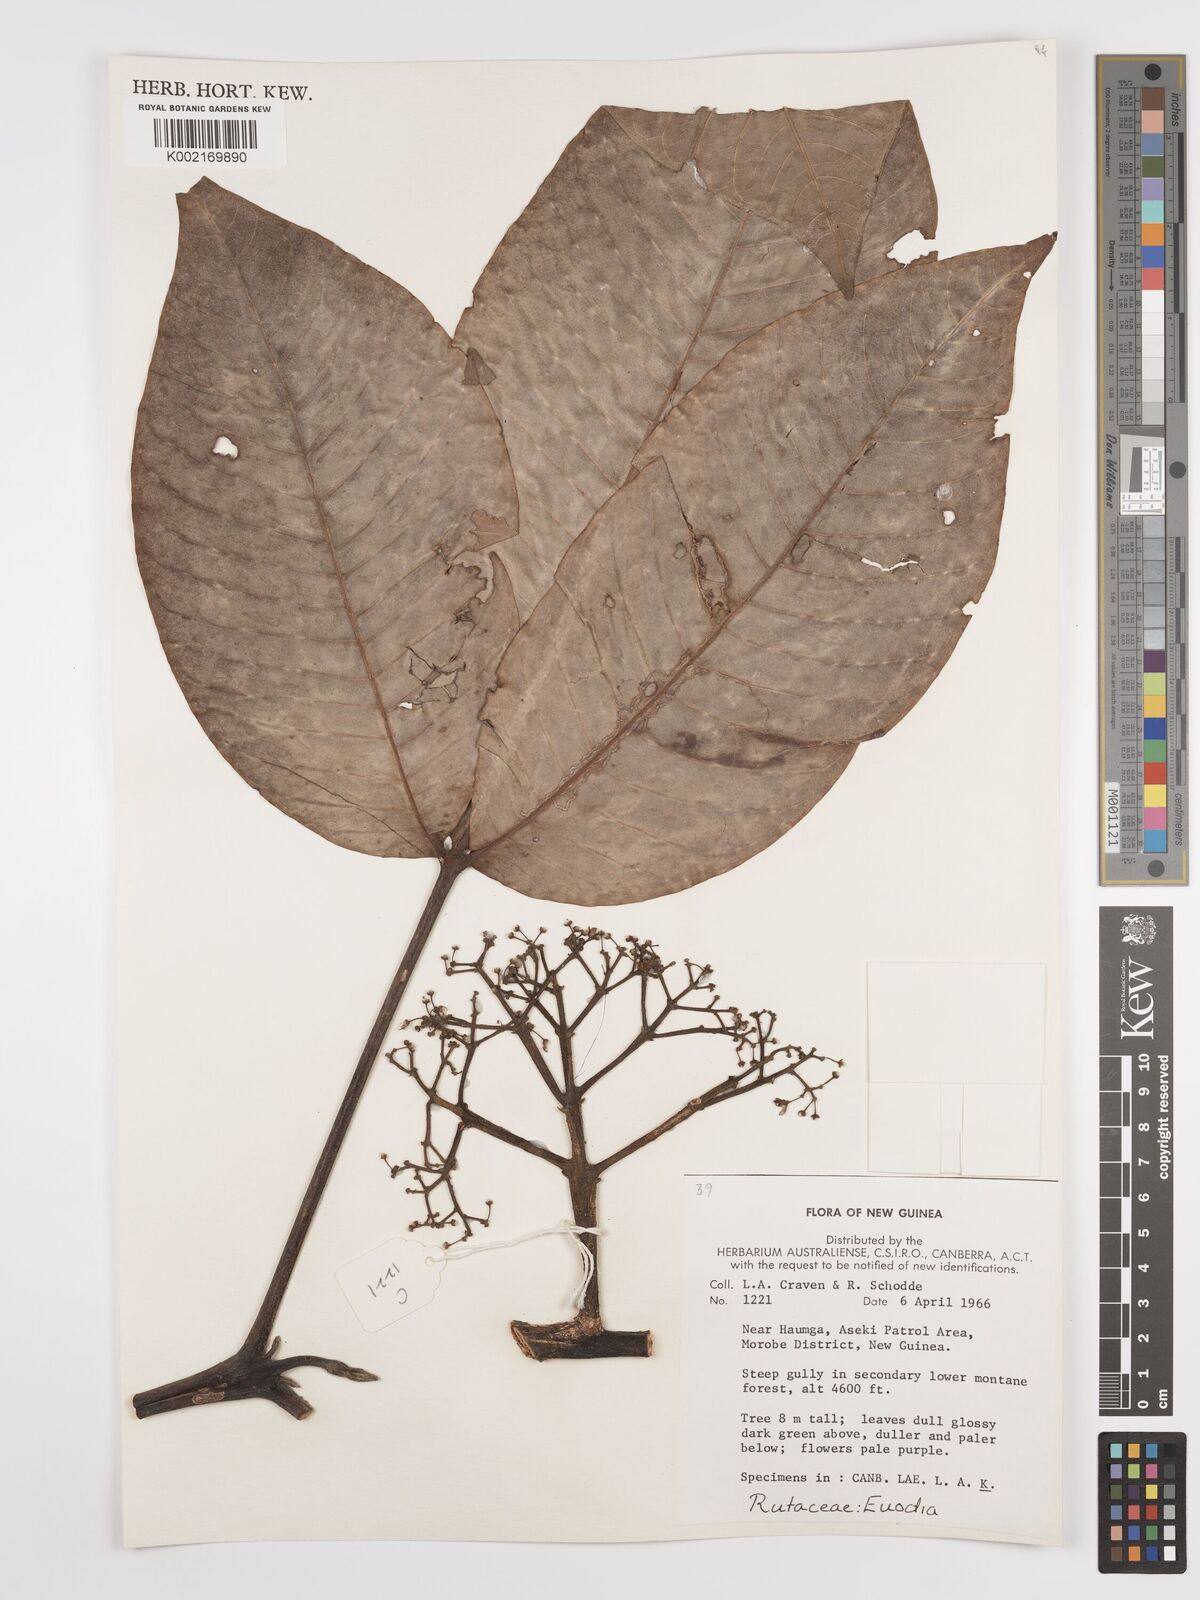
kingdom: Plantae
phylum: Tracheophyta
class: Magnoliopsida
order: Sapindales
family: Rutaceae
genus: Euodia
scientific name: Euodia
